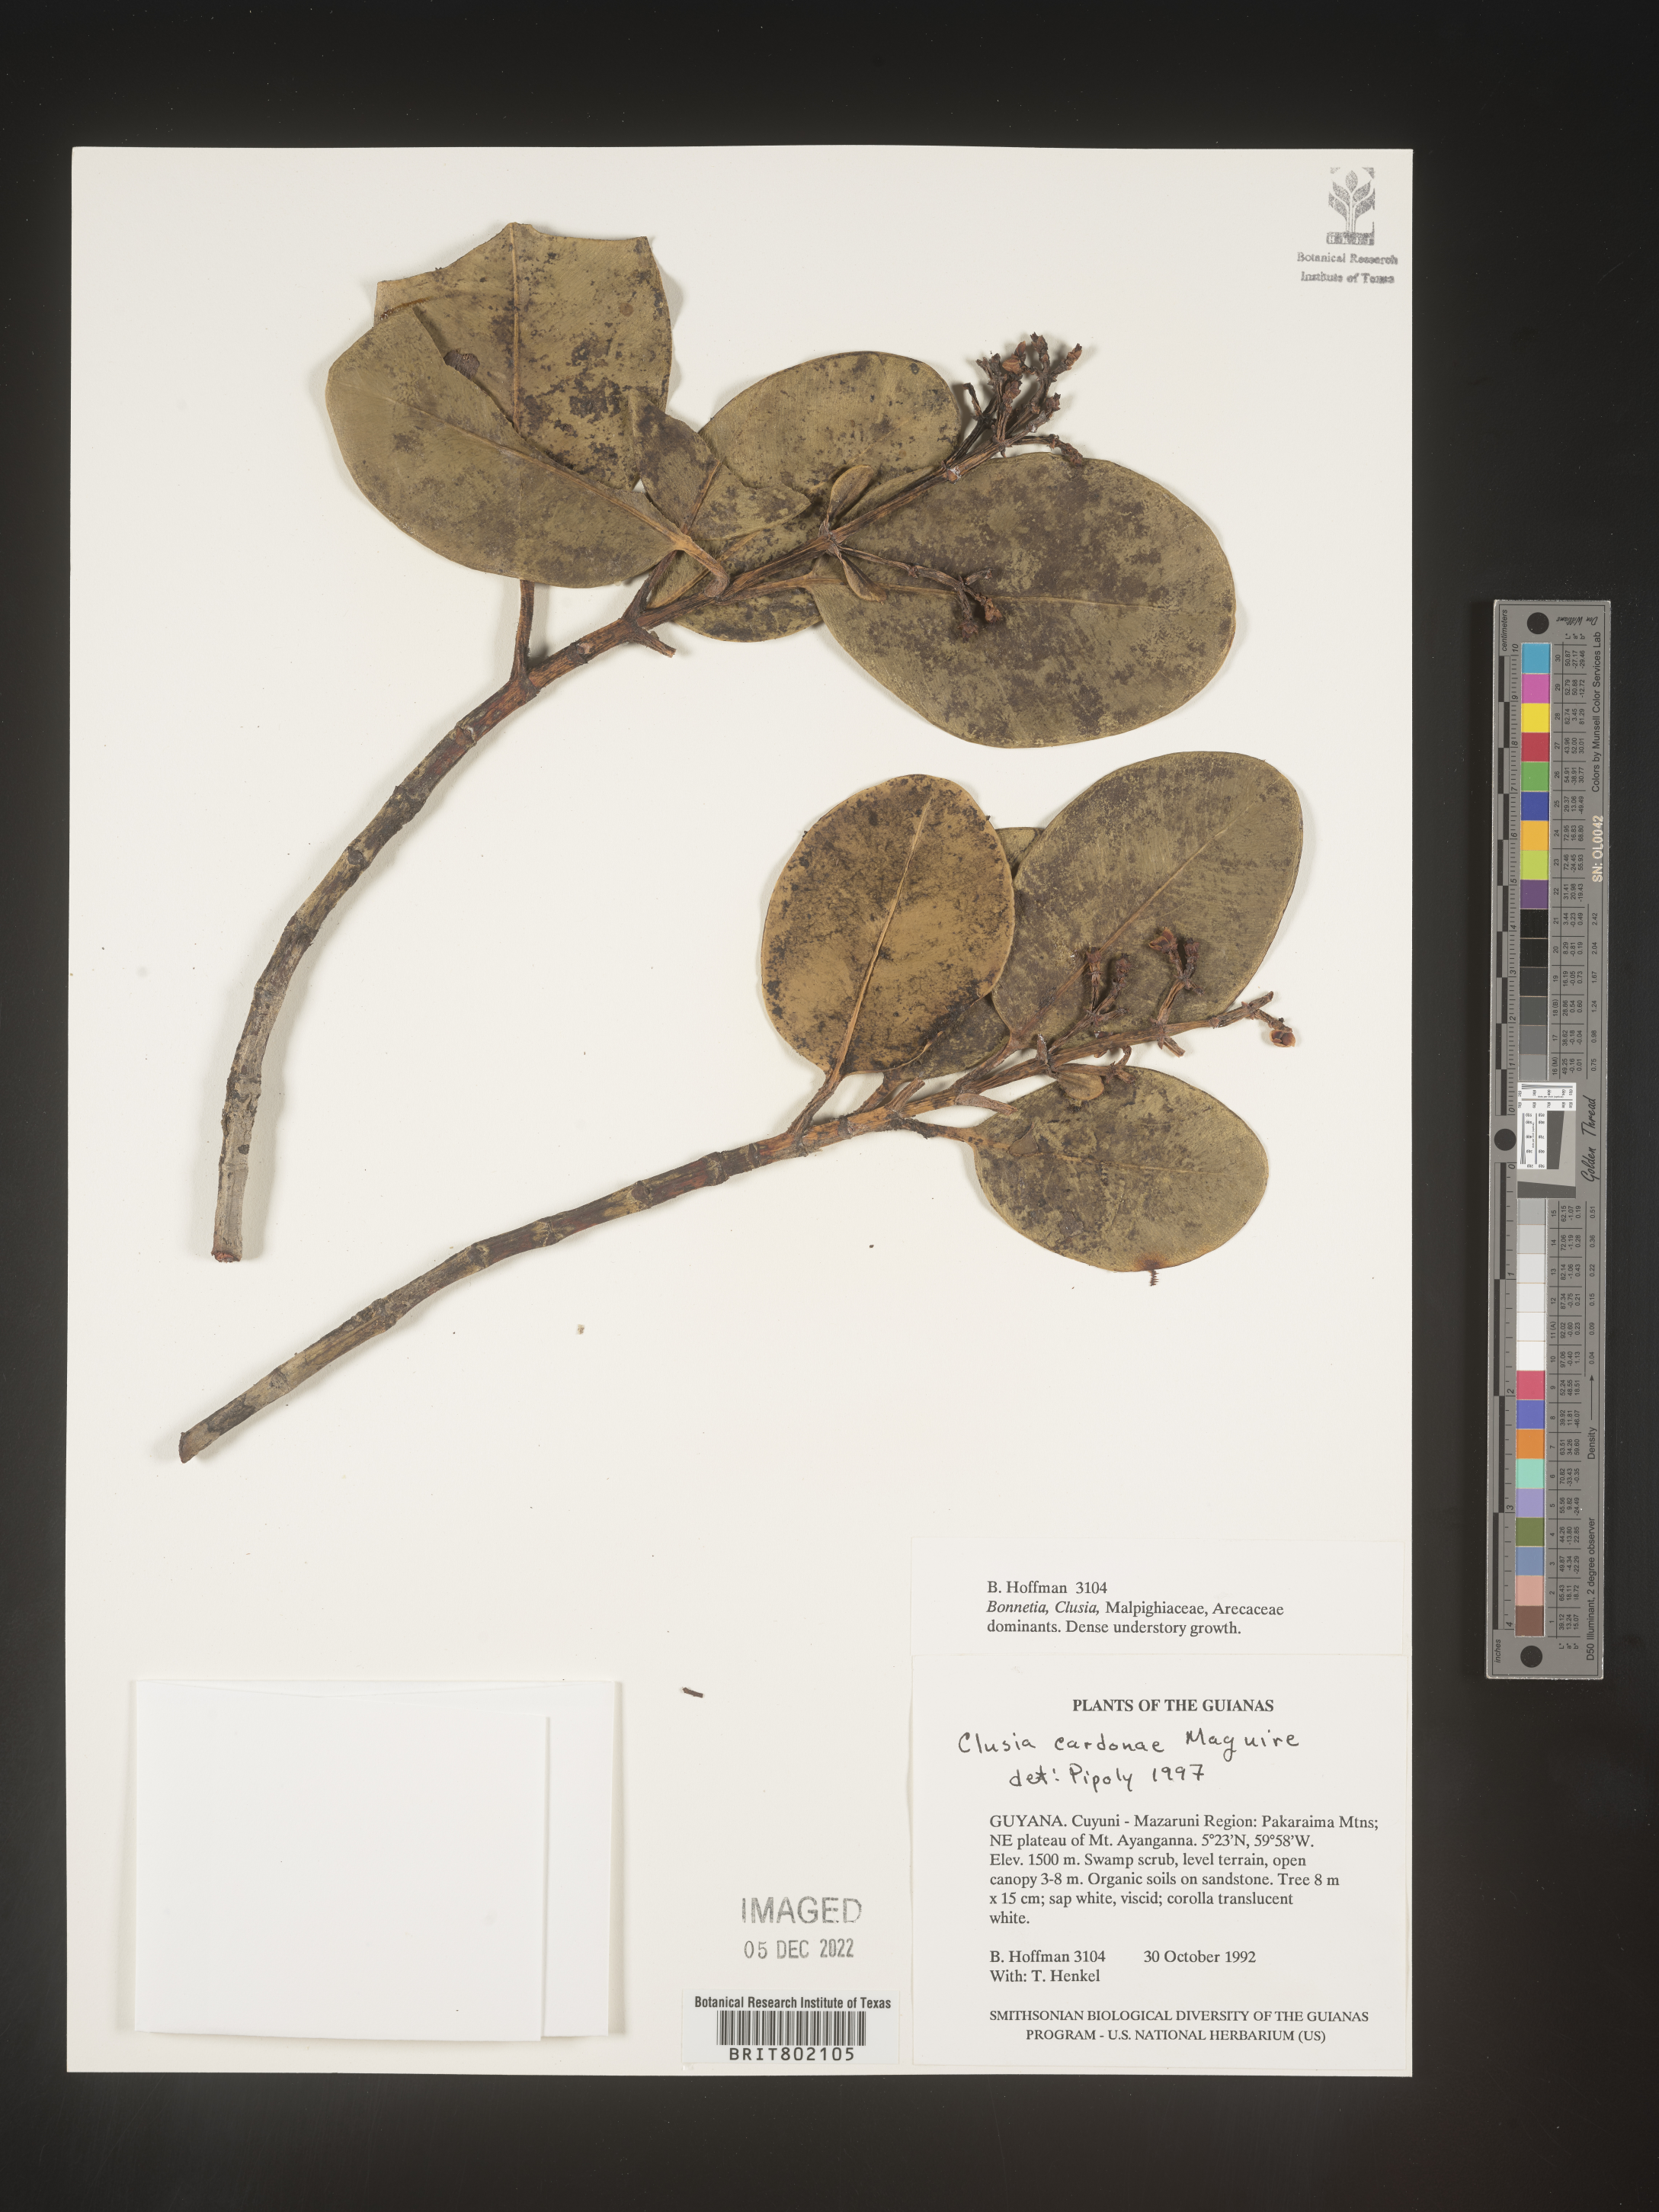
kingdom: Plantae
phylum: Tracheophyta
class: Magnoliopsida
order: Malpighiales
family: Clusiaceae
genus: Clusia
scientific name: Clusia
